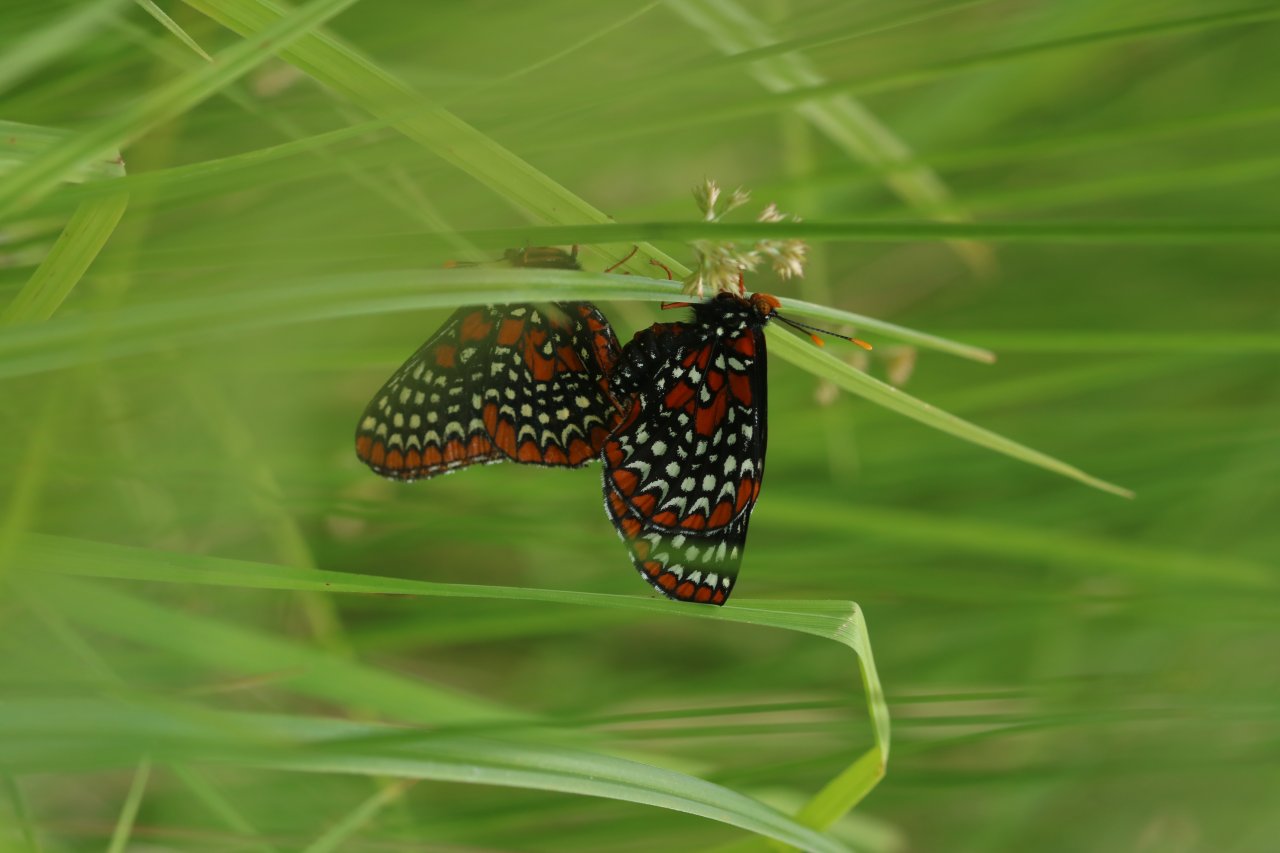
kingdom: Animalia
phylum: Arthropoda
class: Insecta
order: Lepidoptera
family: Nymphalidae
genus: Euphydryas
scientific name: Euphydryas phaeton
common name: Baltimore Checkerspot
